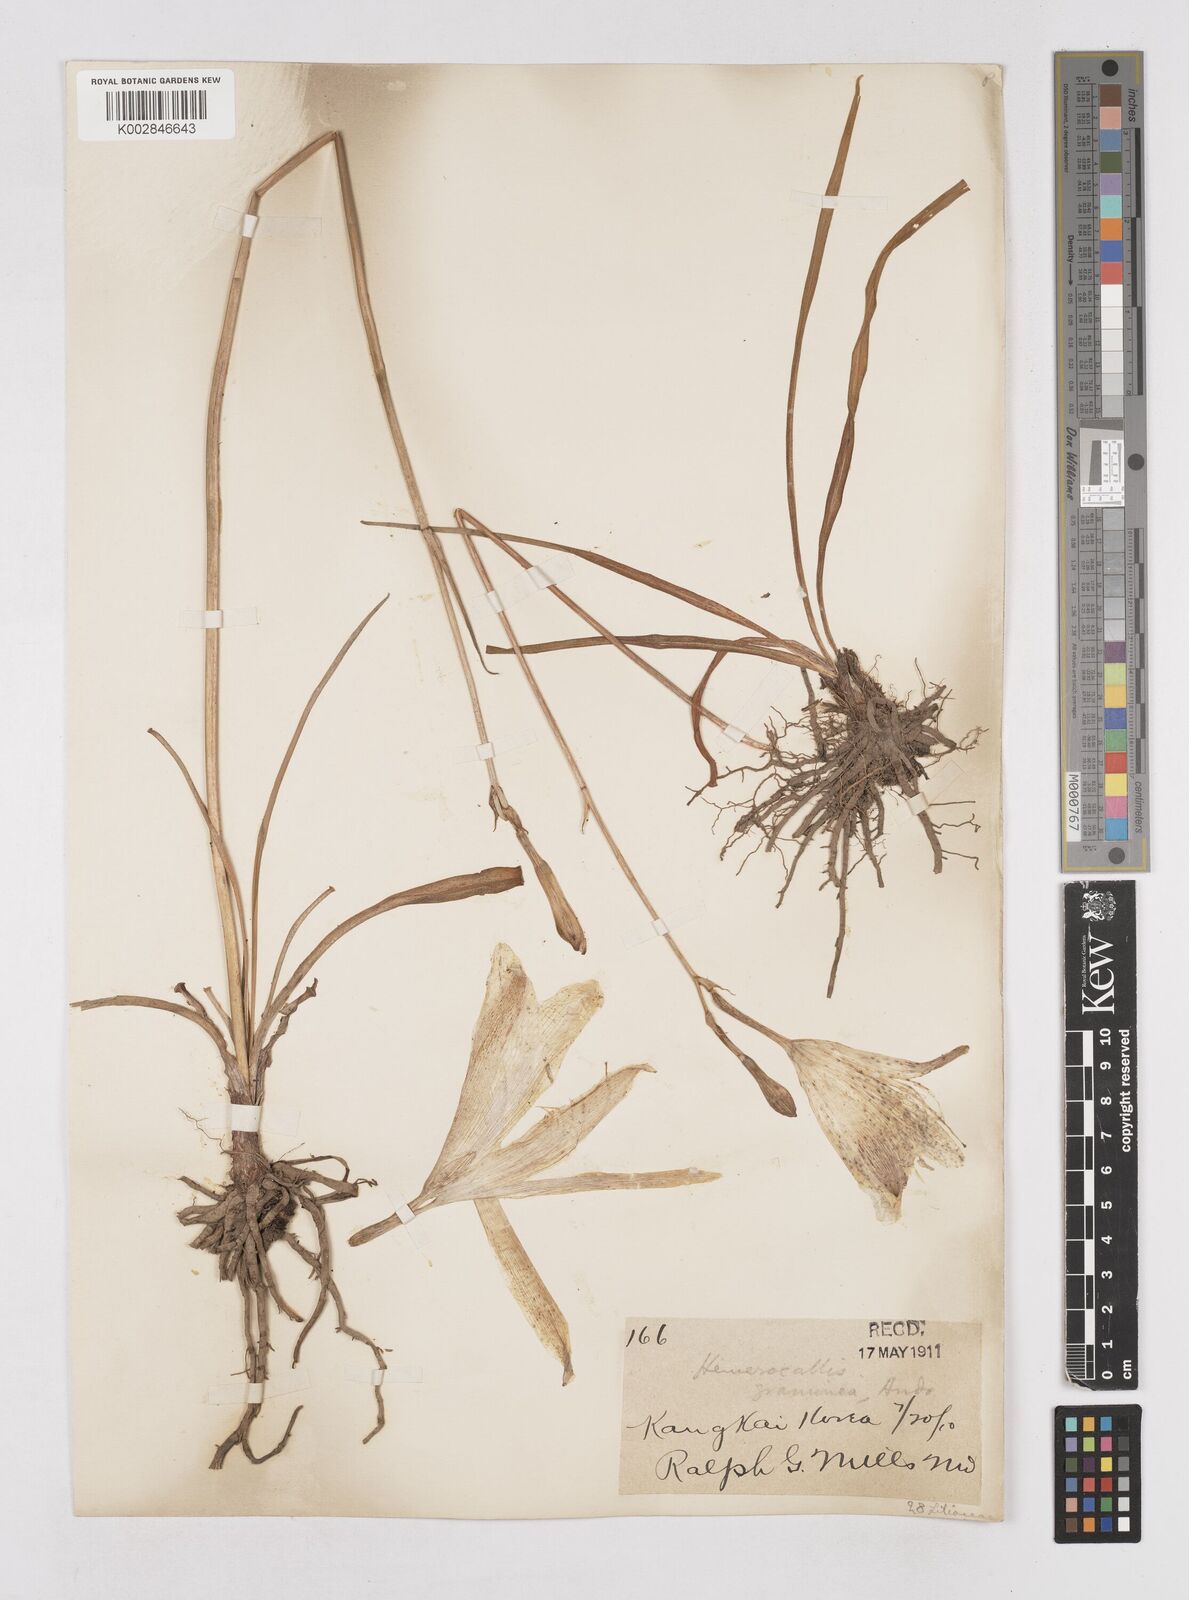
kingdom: Plantae
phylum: Tracheophyta
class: Liliopsida
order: Asparagales
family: Asphodelaceae
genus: Hemerocallis
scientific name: Hemerocallis minor
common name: Small daylily
